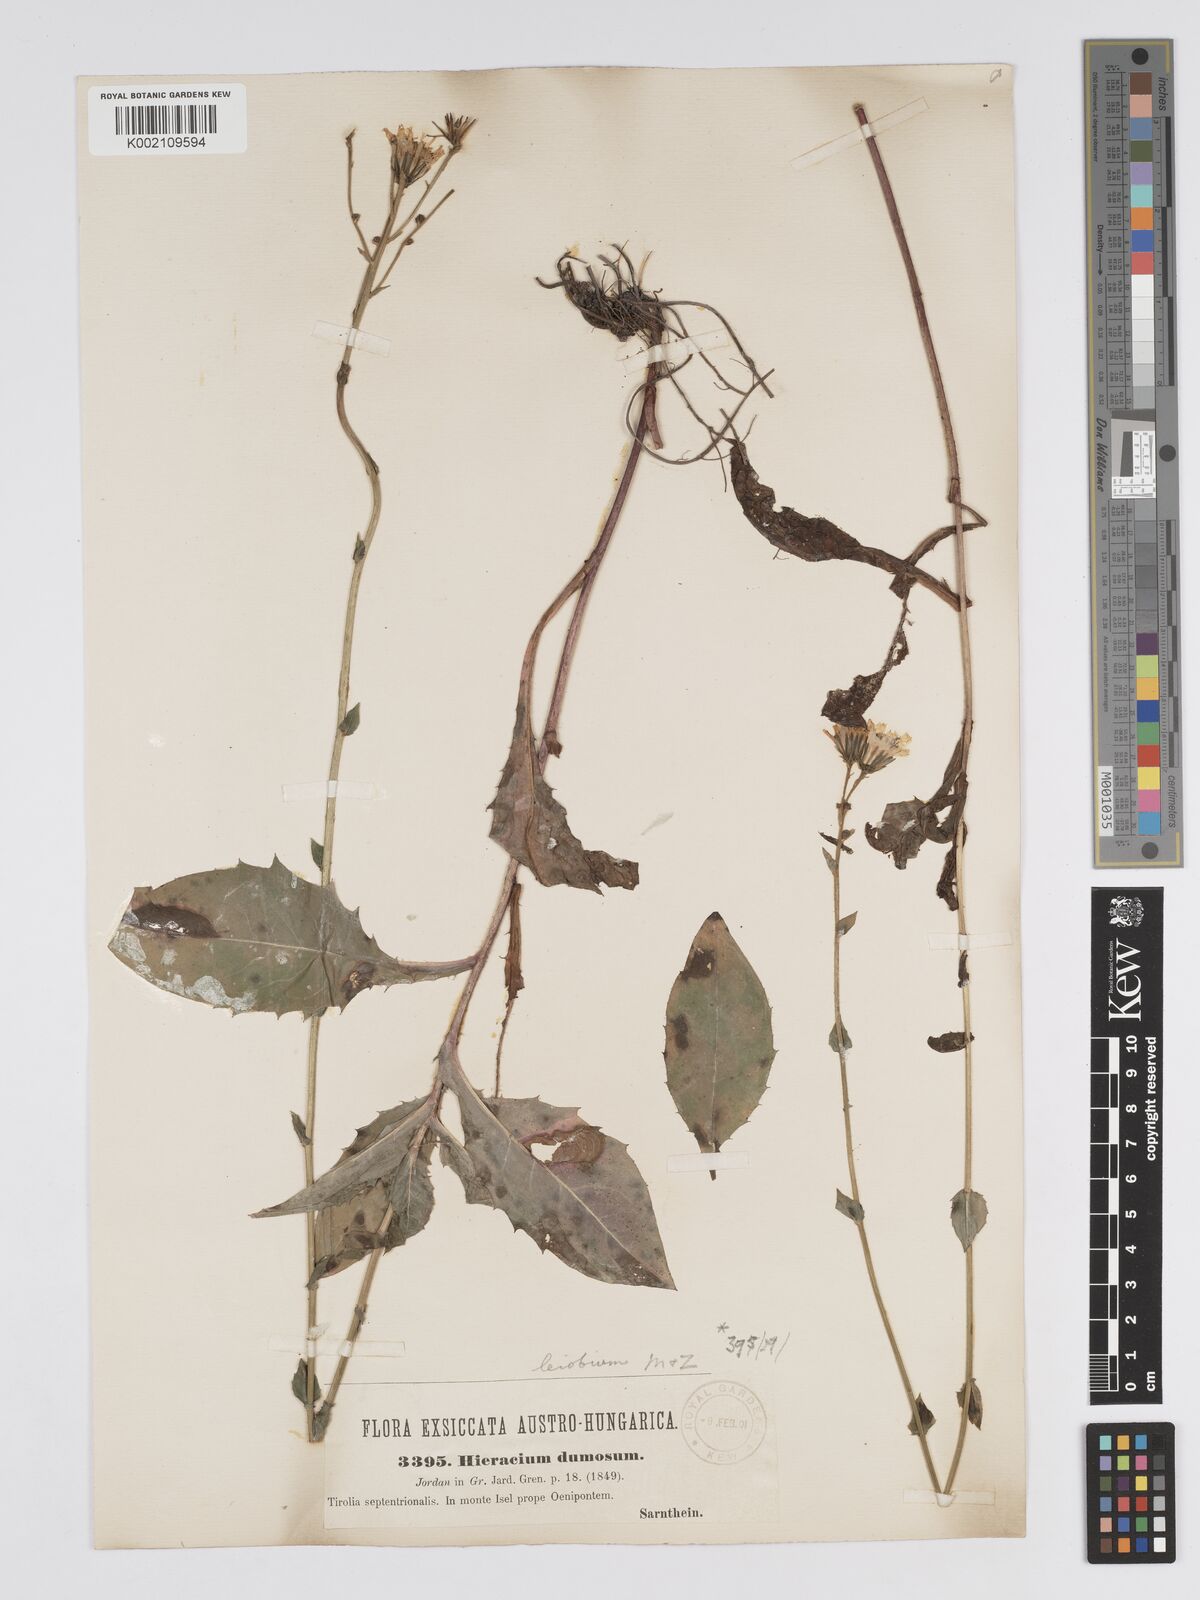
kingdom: Plantae
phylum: Tracheophyta
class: Magnoliopsida
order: Asterales
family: Asteraceae
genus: Hieracium
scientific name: Hieracium racemosum
